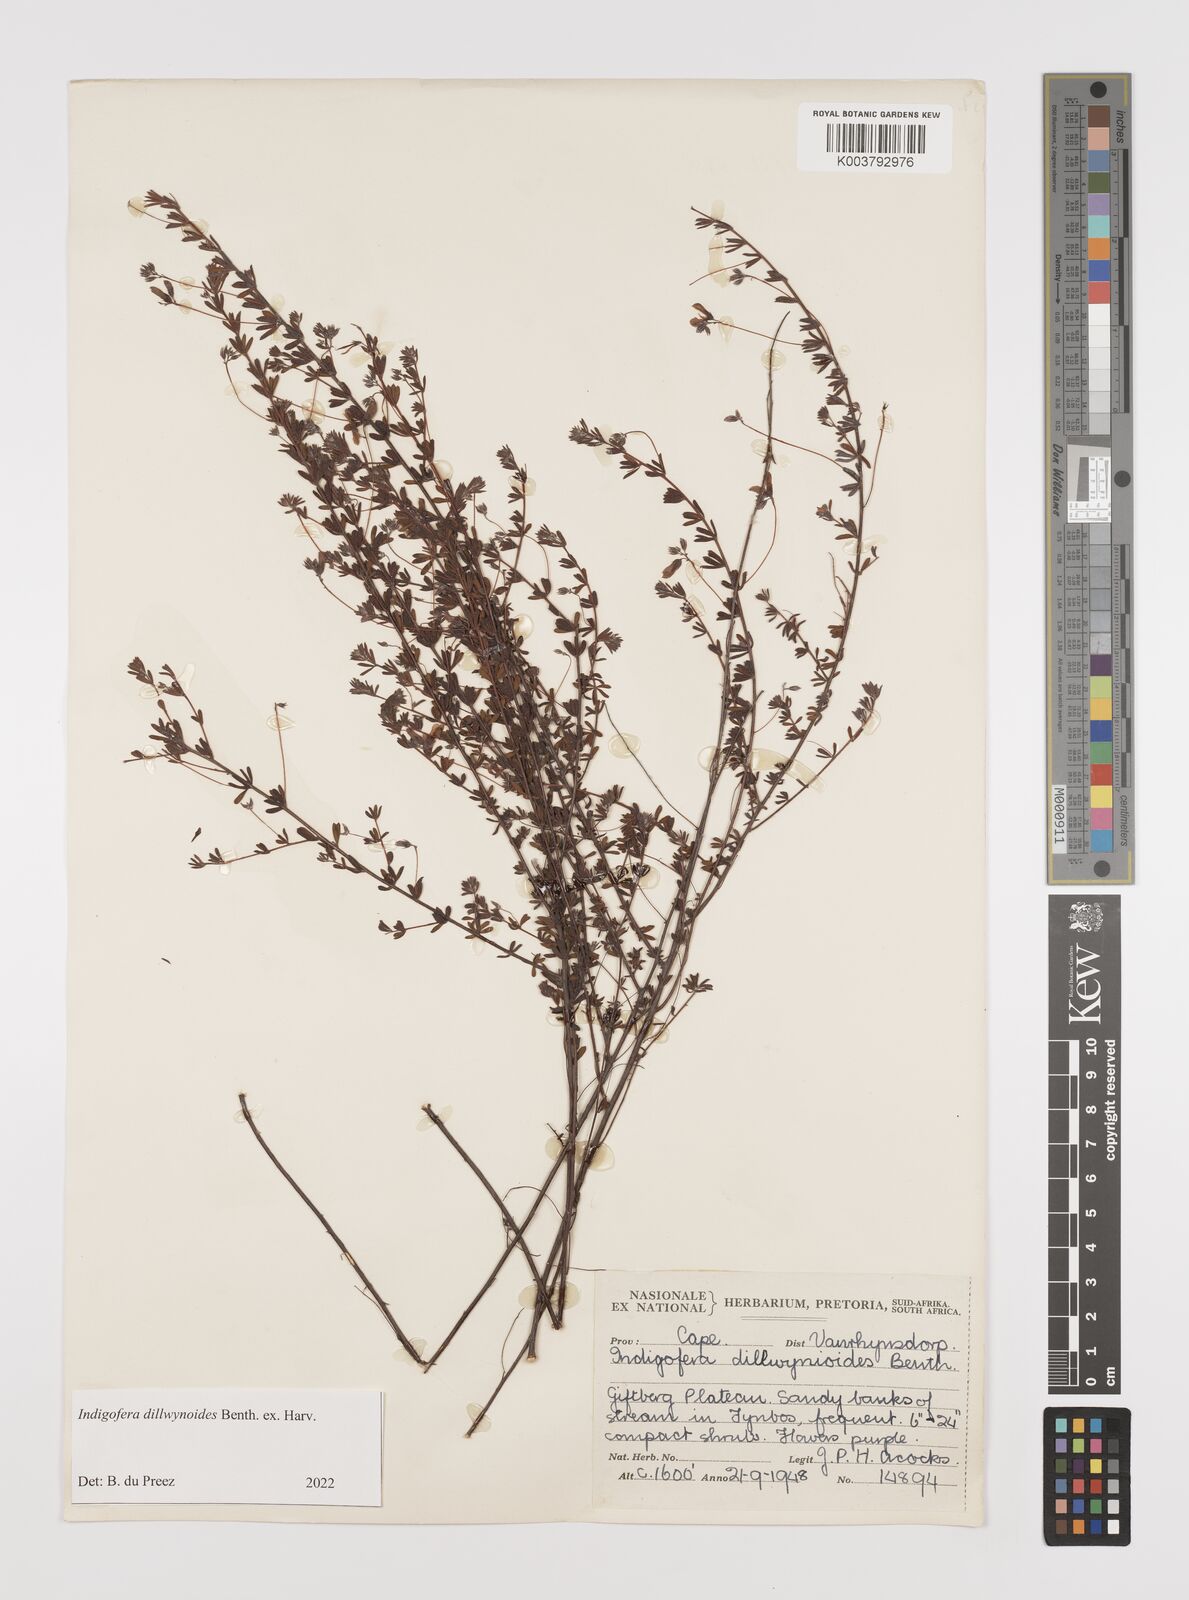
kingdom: Plantae
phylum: Tracheophyta
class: Magnoliopsida
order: Fabales
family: Fabaceae
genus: Indigofera
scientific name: Indigofera dillwynioides
